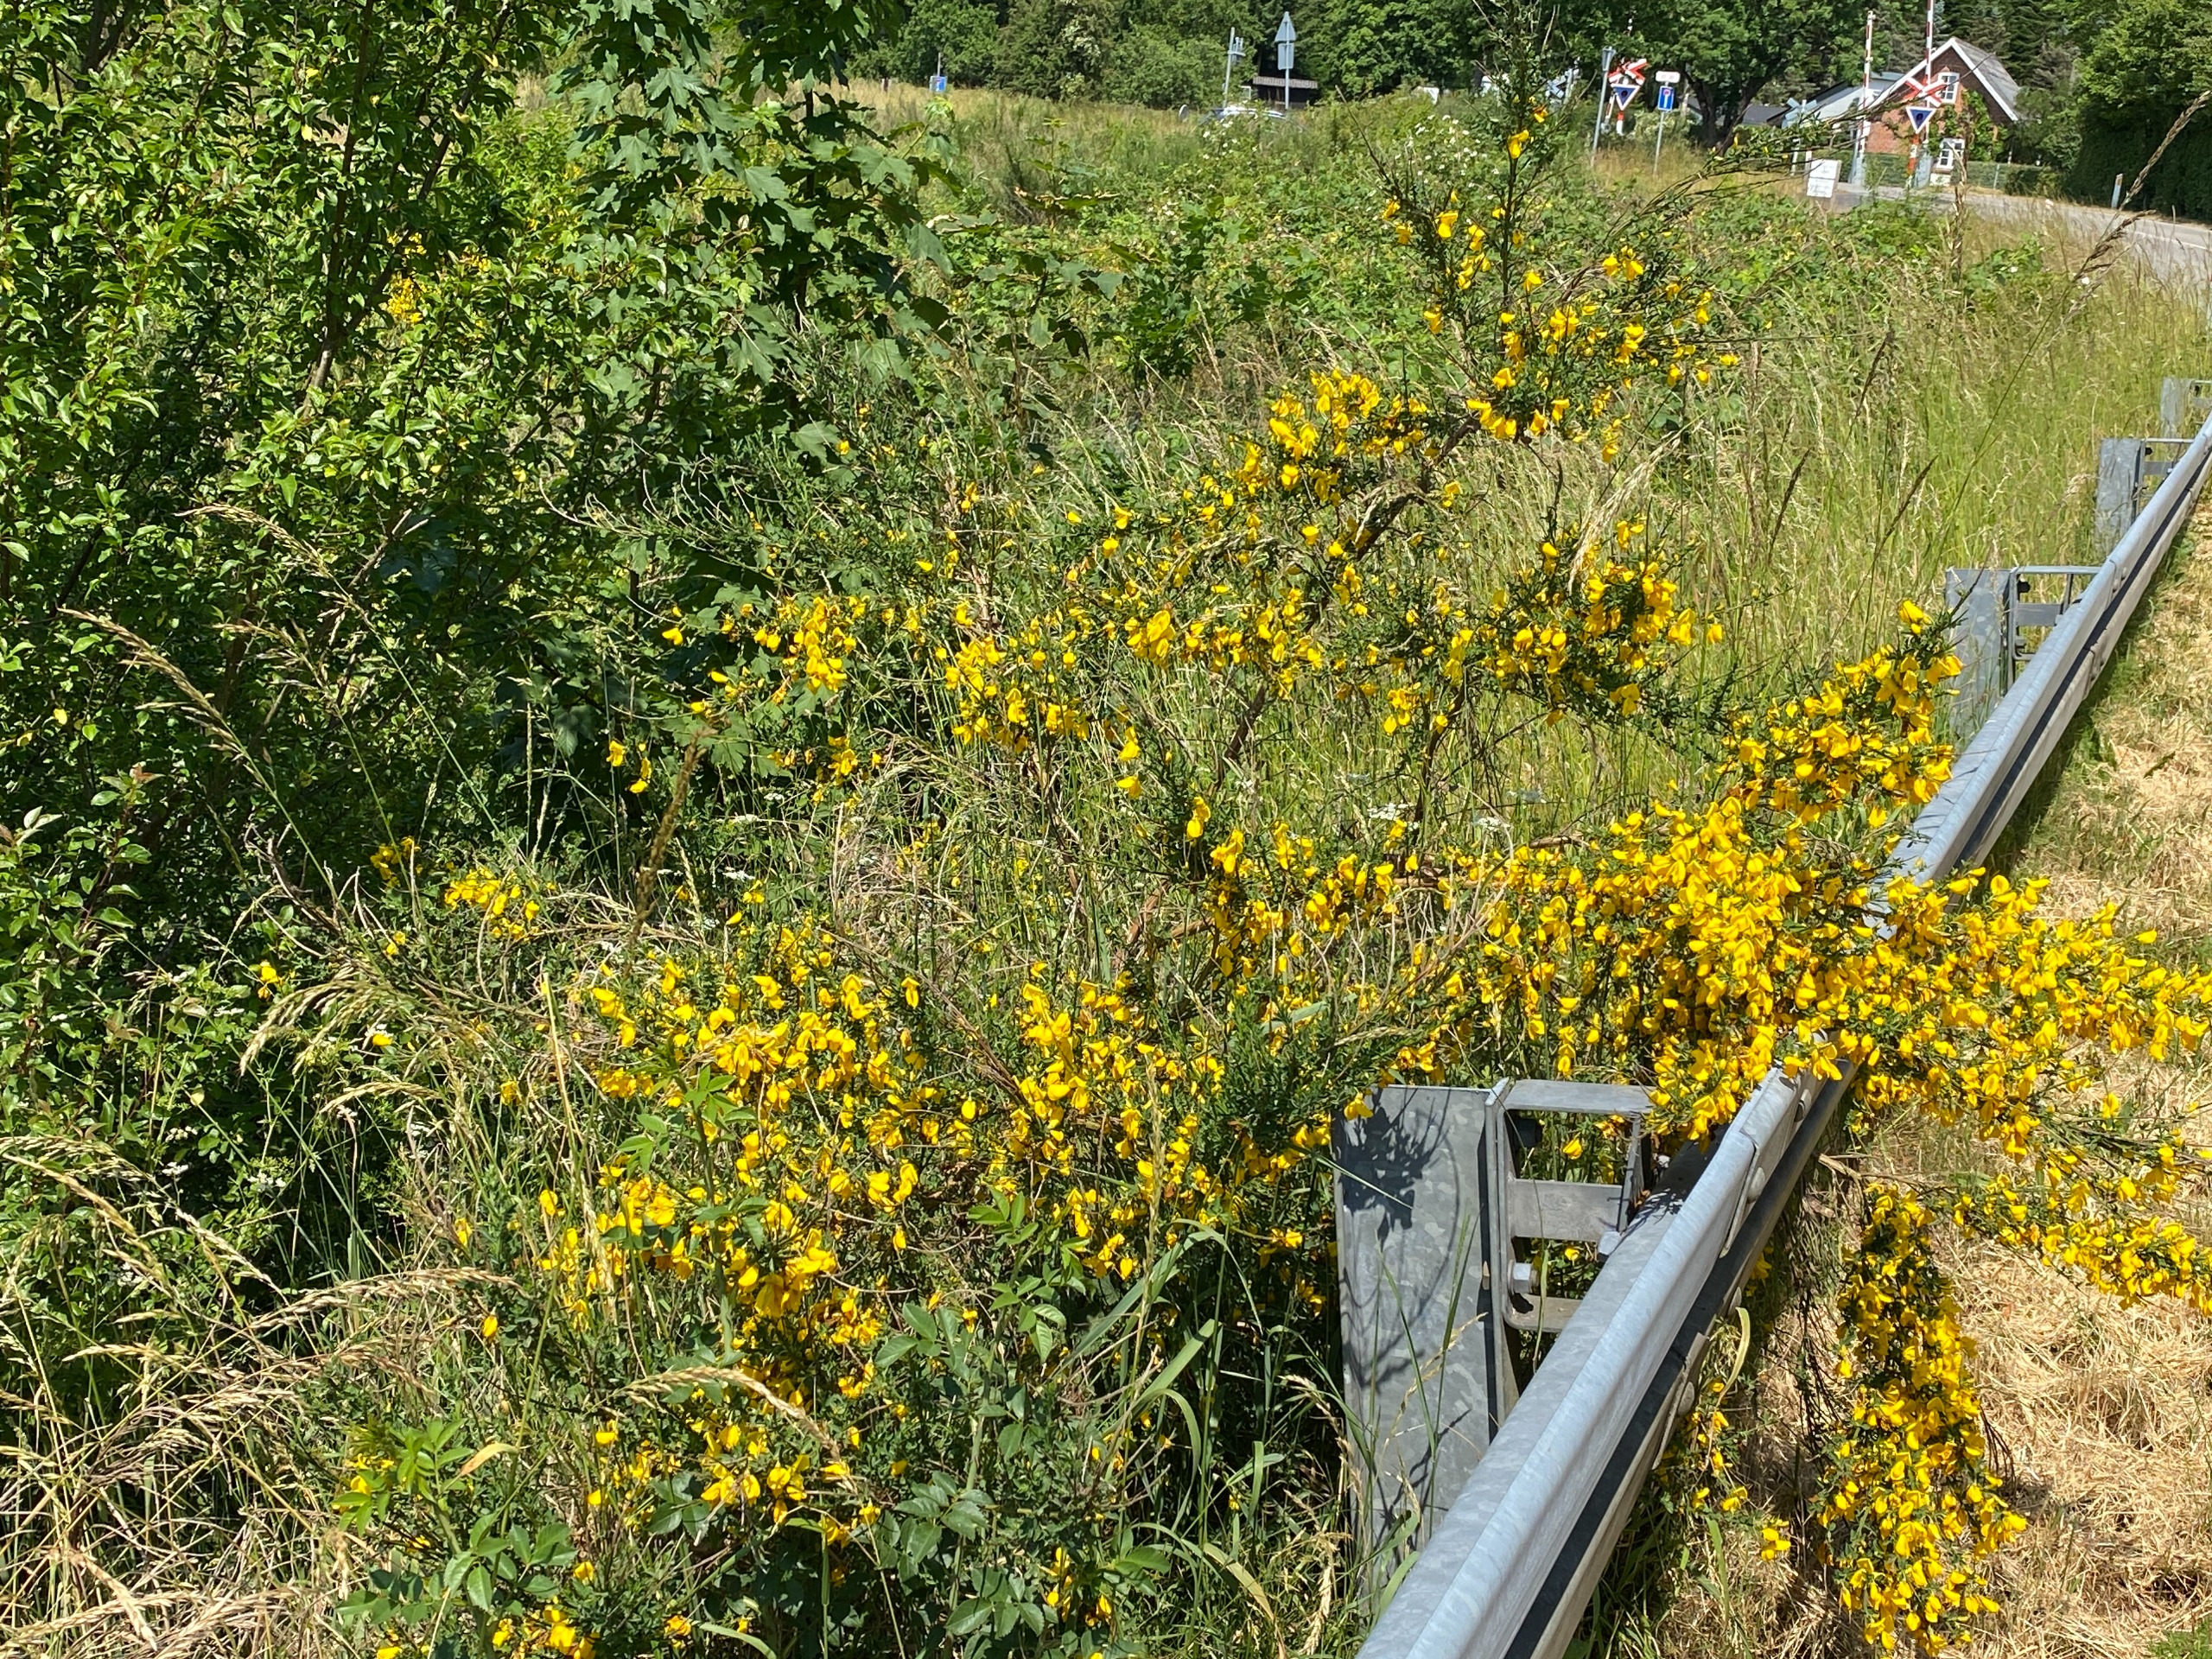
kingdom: Plantae
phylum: Tracheophyta
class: Magnoliopsida
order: Fabales
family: Fabaceae
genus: Cytisus
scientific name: Cytisus scoparius
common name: Almindelig gyvel
